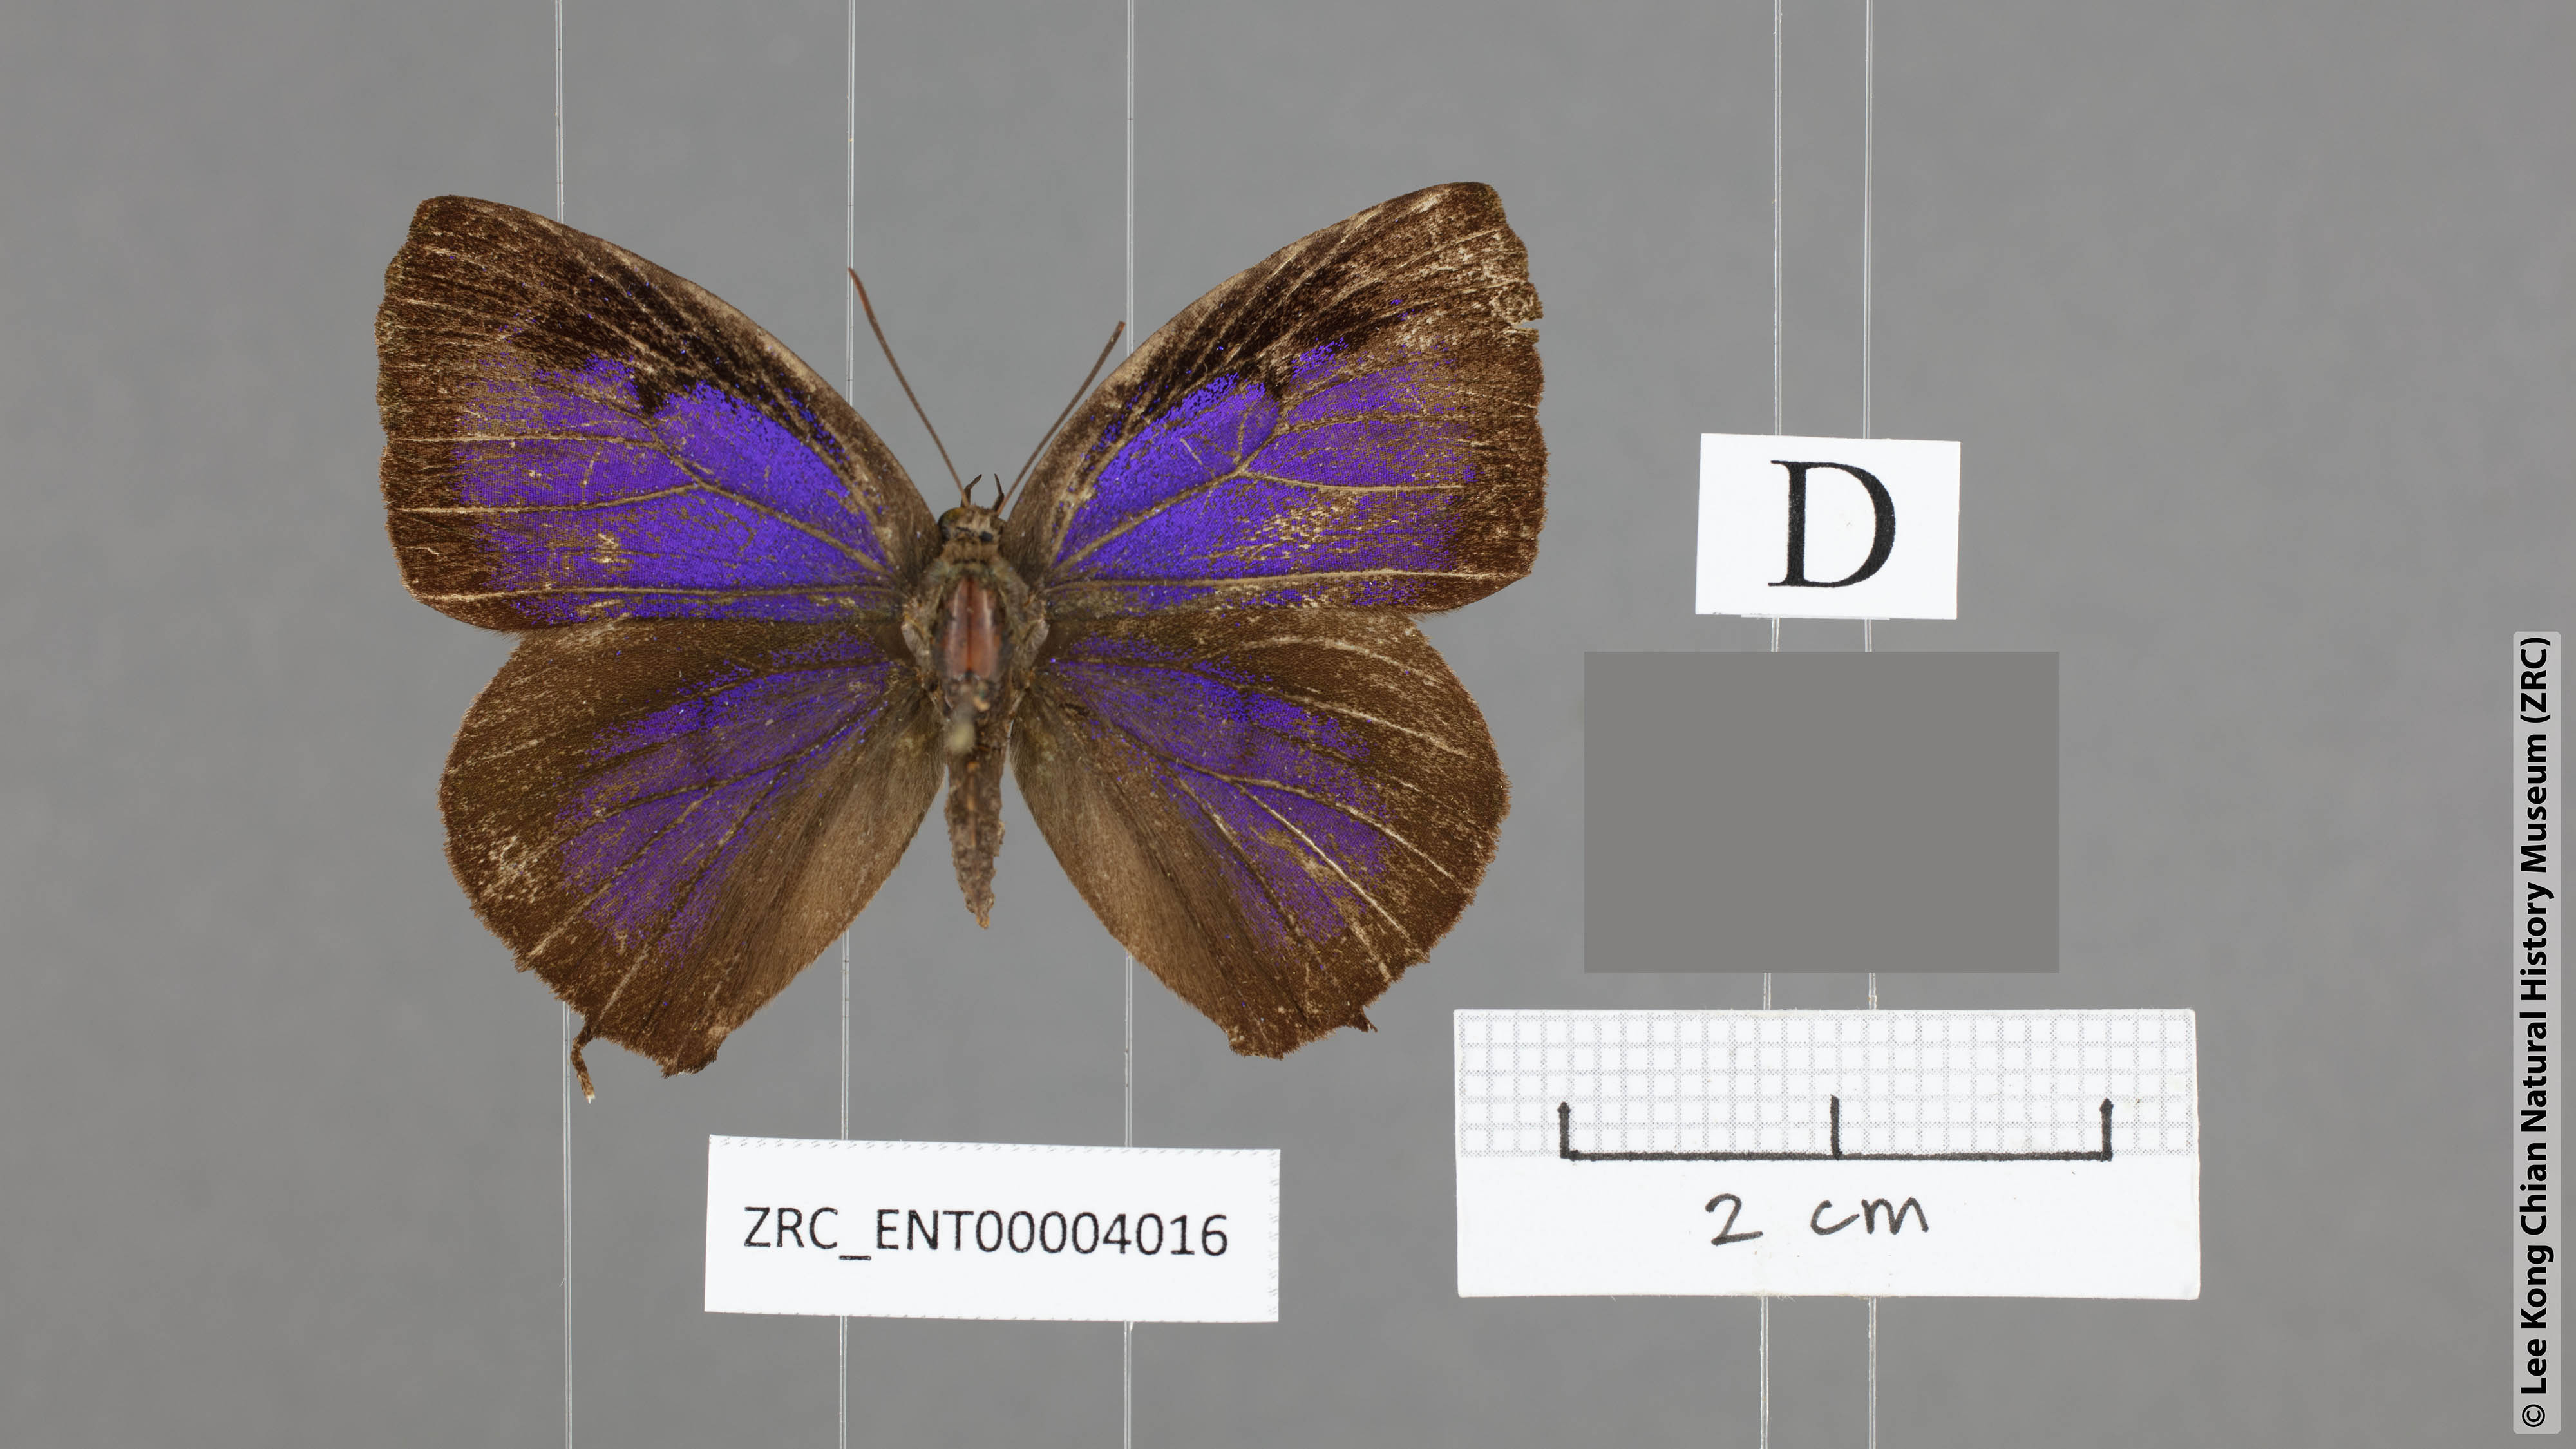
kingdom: Animalia
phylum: Arthropoda
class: Insecta
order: Lepidoptera
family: Lycaenidae
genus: Arhopala
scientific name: Arhopala overdijkinki
